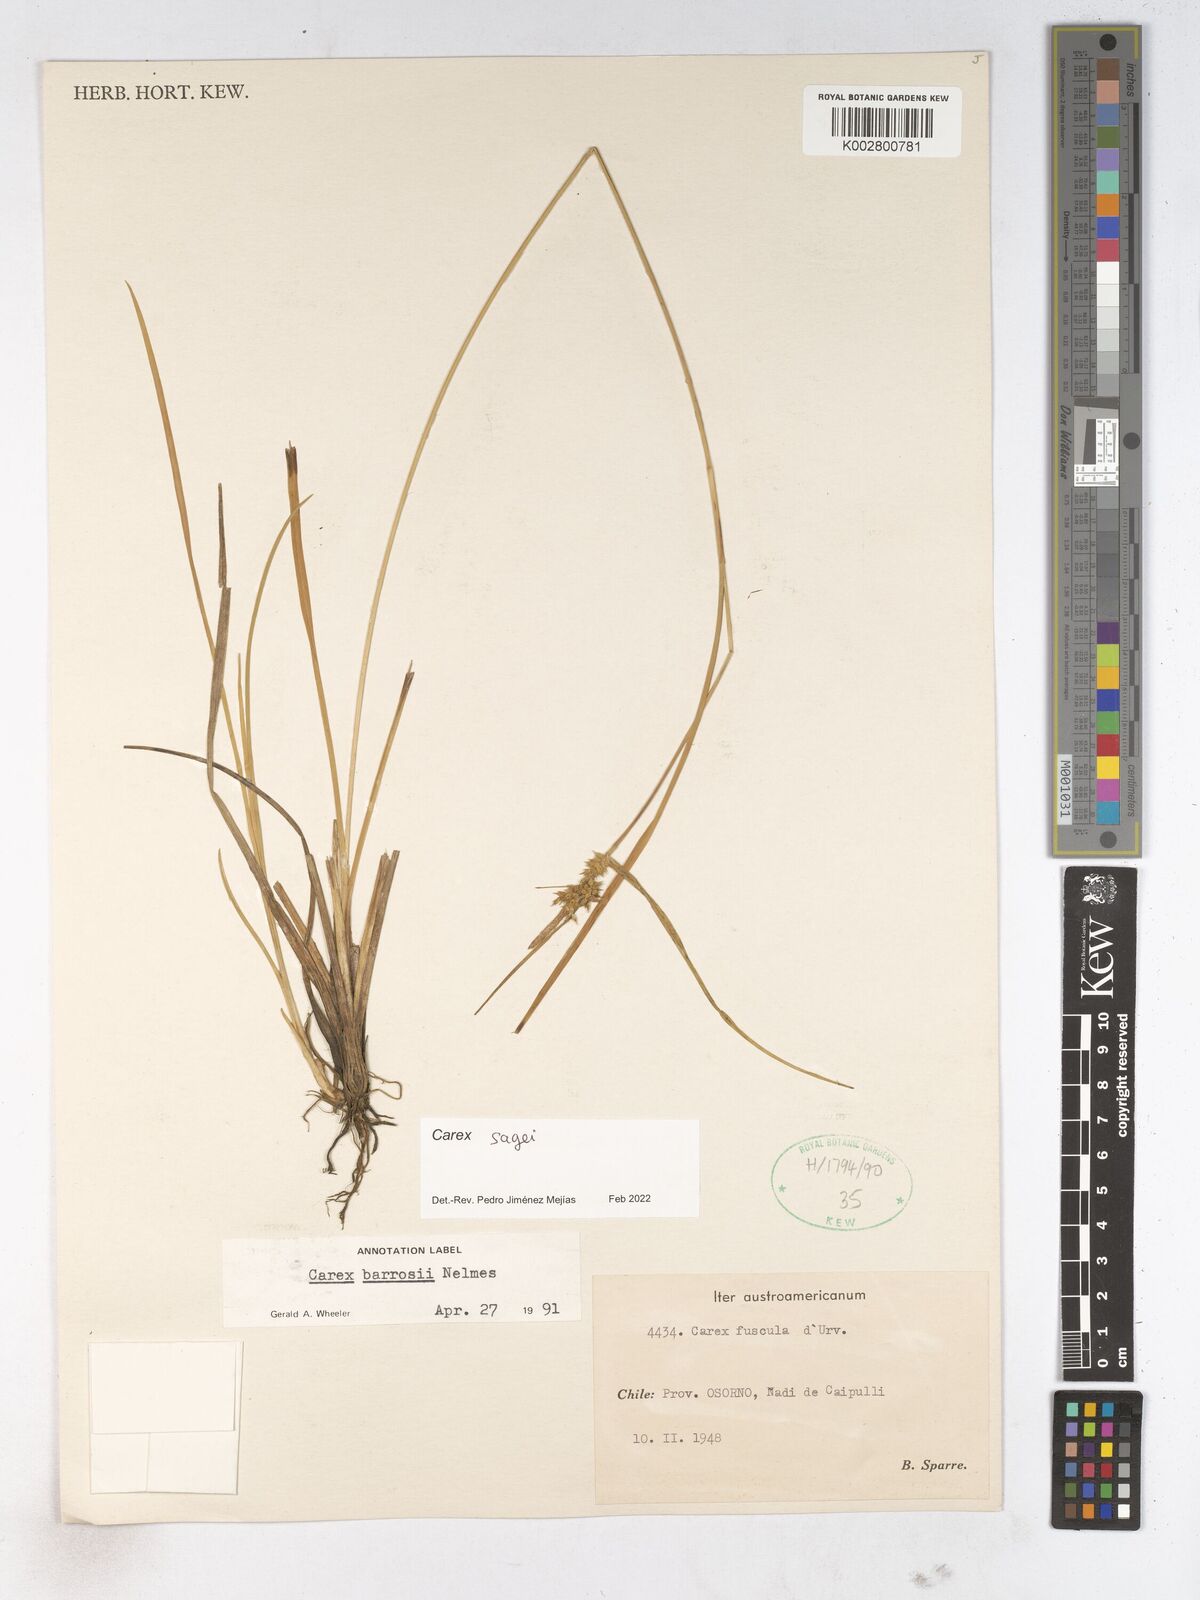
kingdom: Plantae
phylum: Tracheophyta
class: Liliopsida
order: Poales
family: Cyperaceae
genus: Carex
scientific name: Carex
